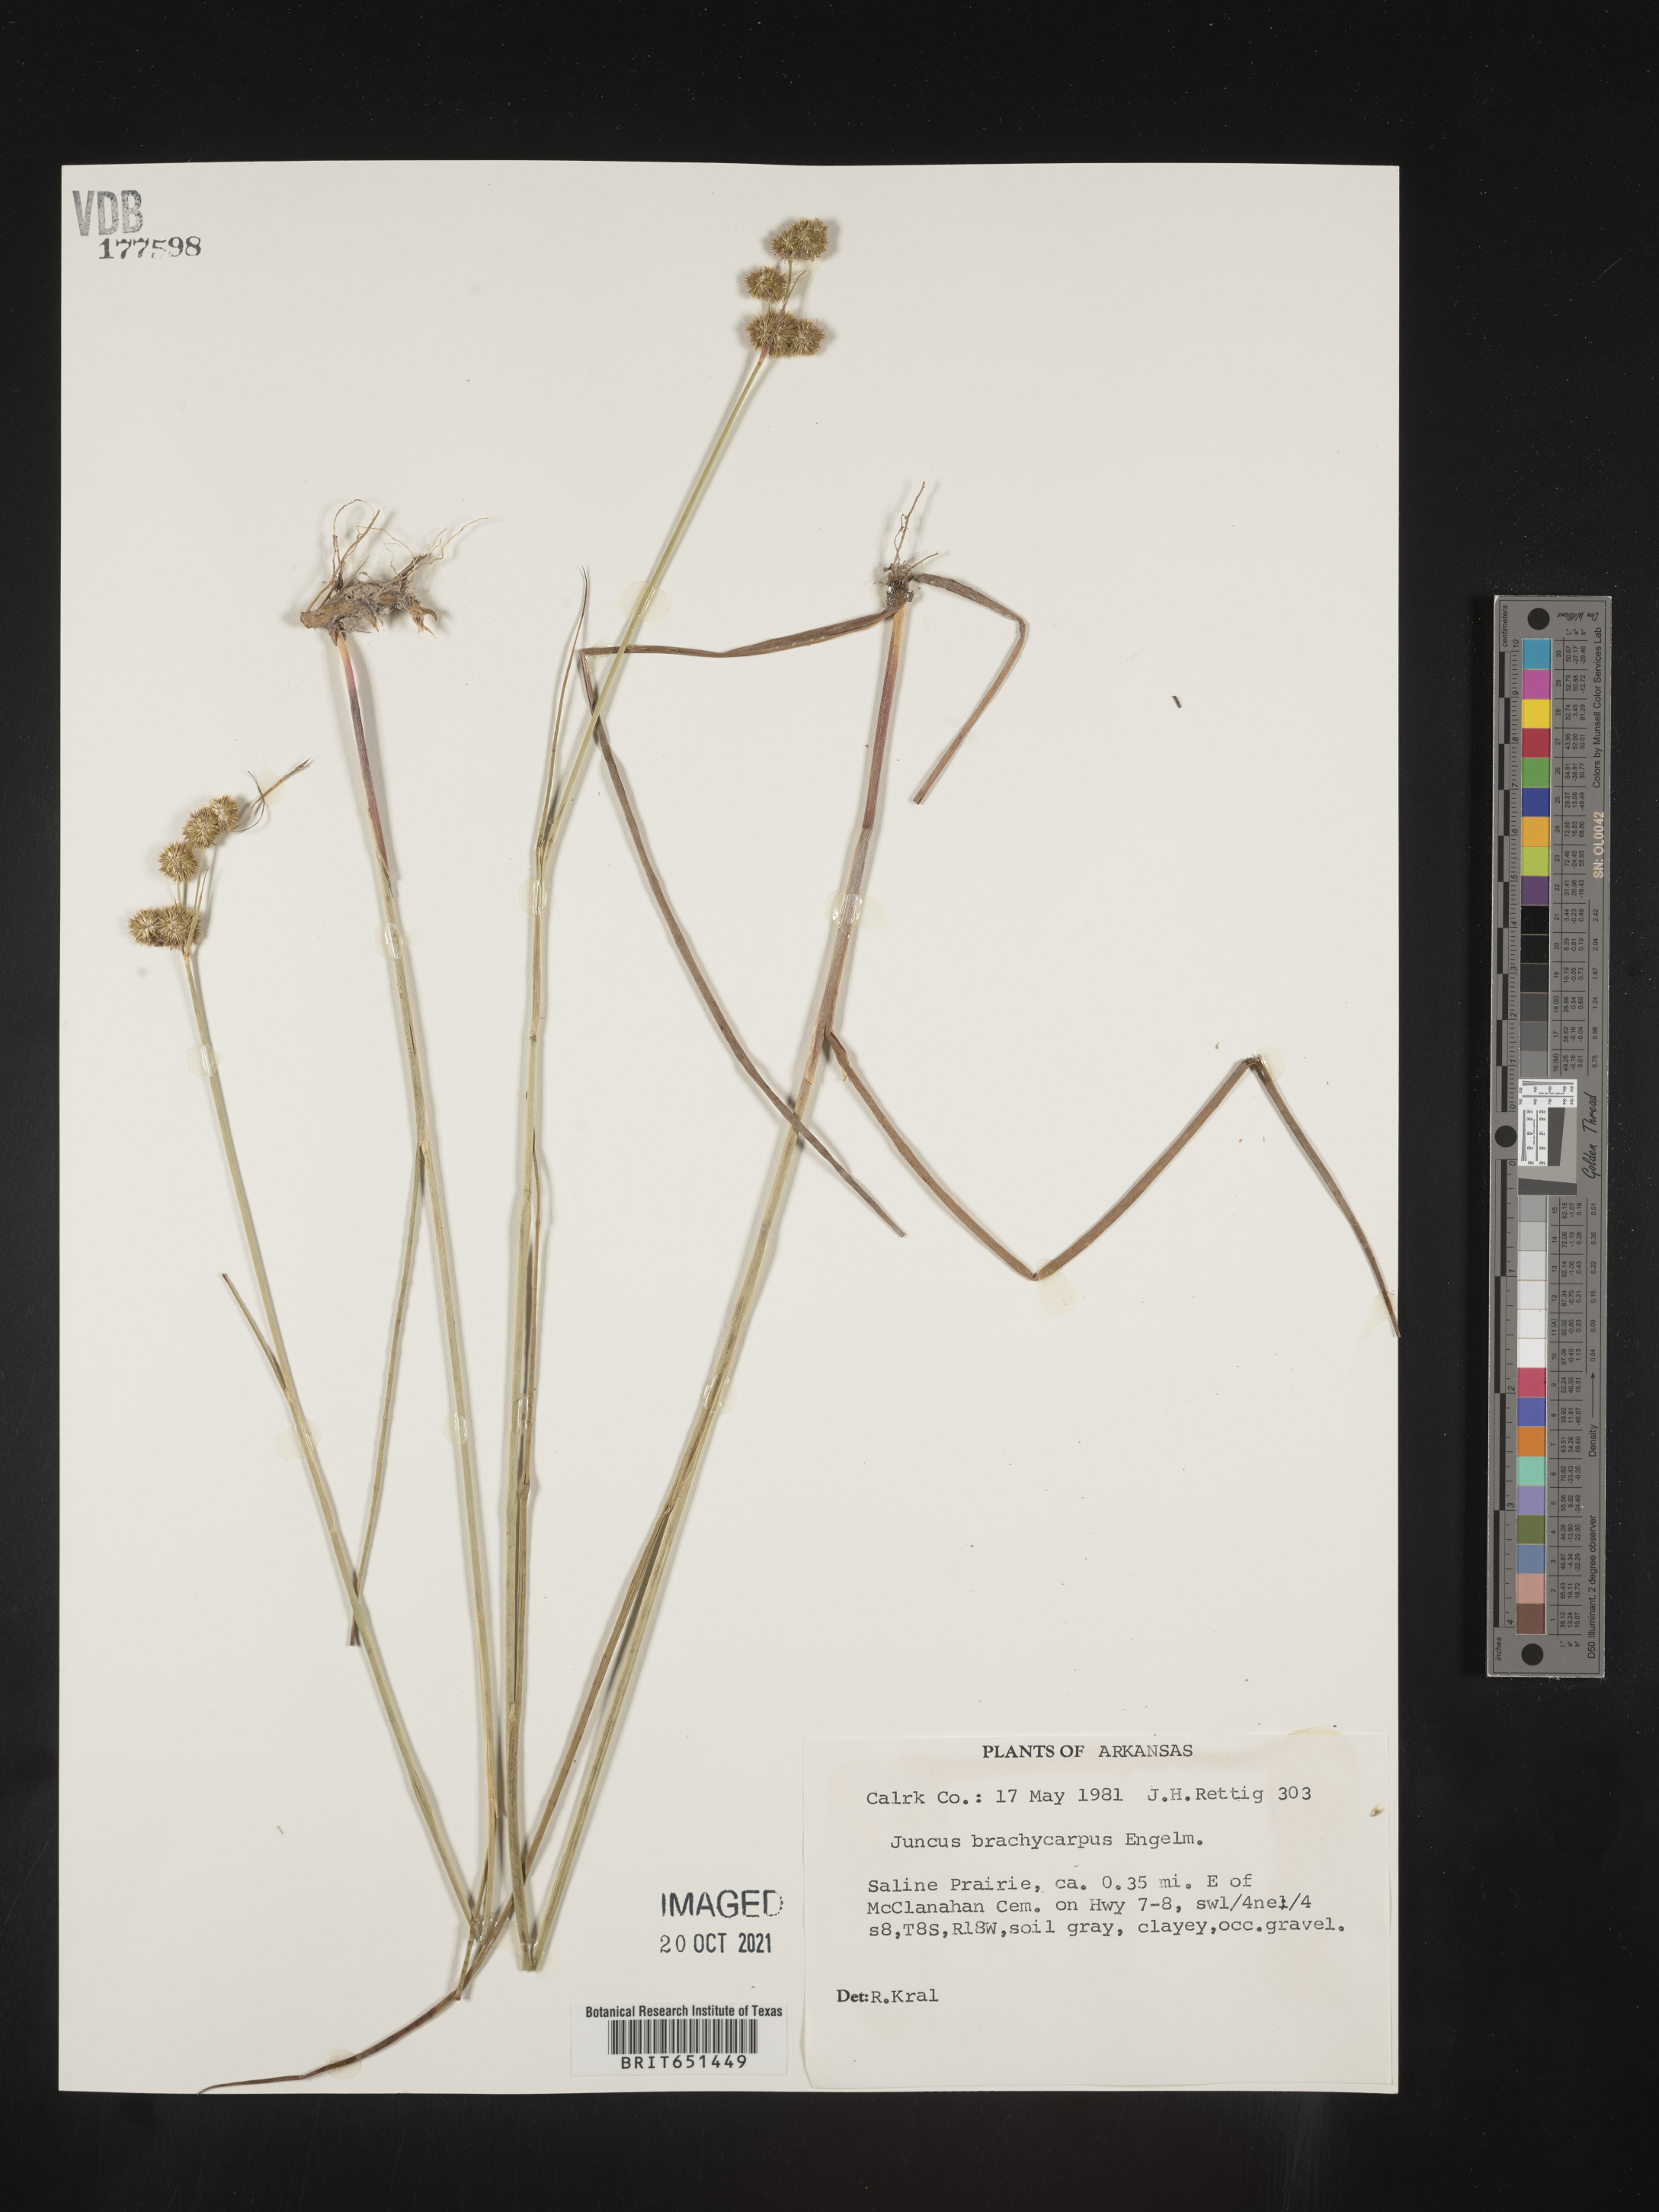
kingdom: Plantae
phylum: Tracheophyta
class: Liliopsida
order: Poales
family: Juncaceae
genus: Juncus
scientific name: Juncus brachycarpus
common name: Shore rush
